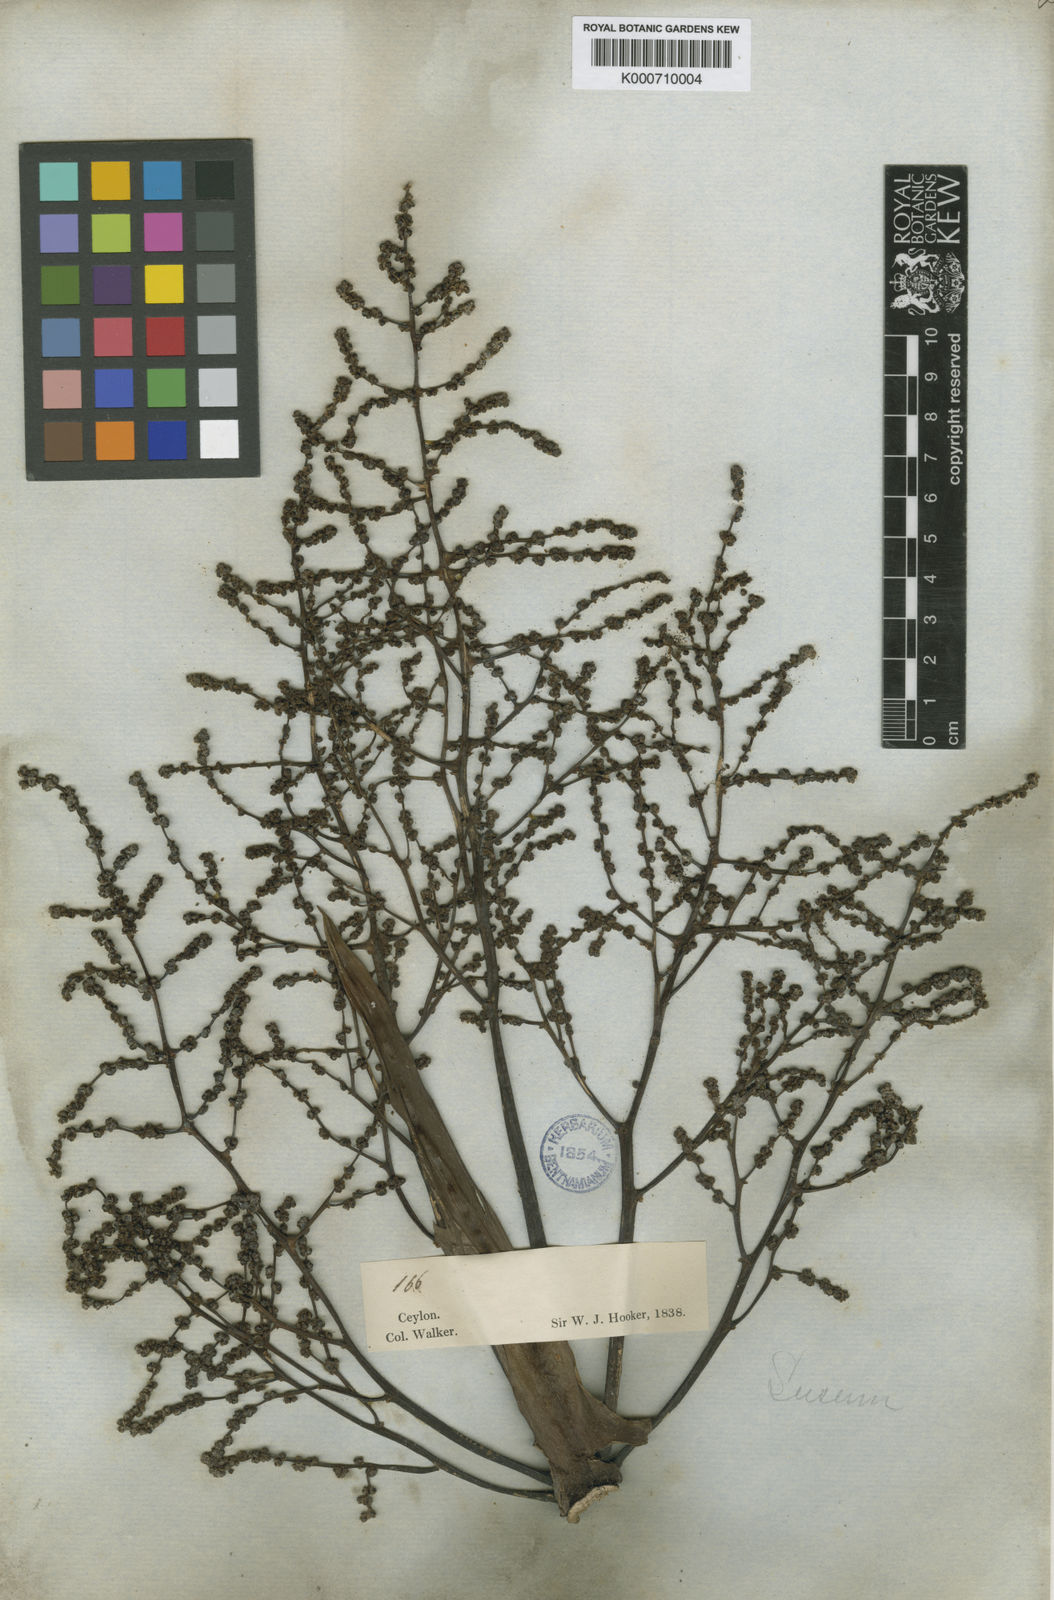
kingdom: Plantae
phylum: Tracheophyta
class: Liliopsida
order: Commelinales
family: Hanguanaceae
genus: Hanguana
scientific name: Hanguana malayana
